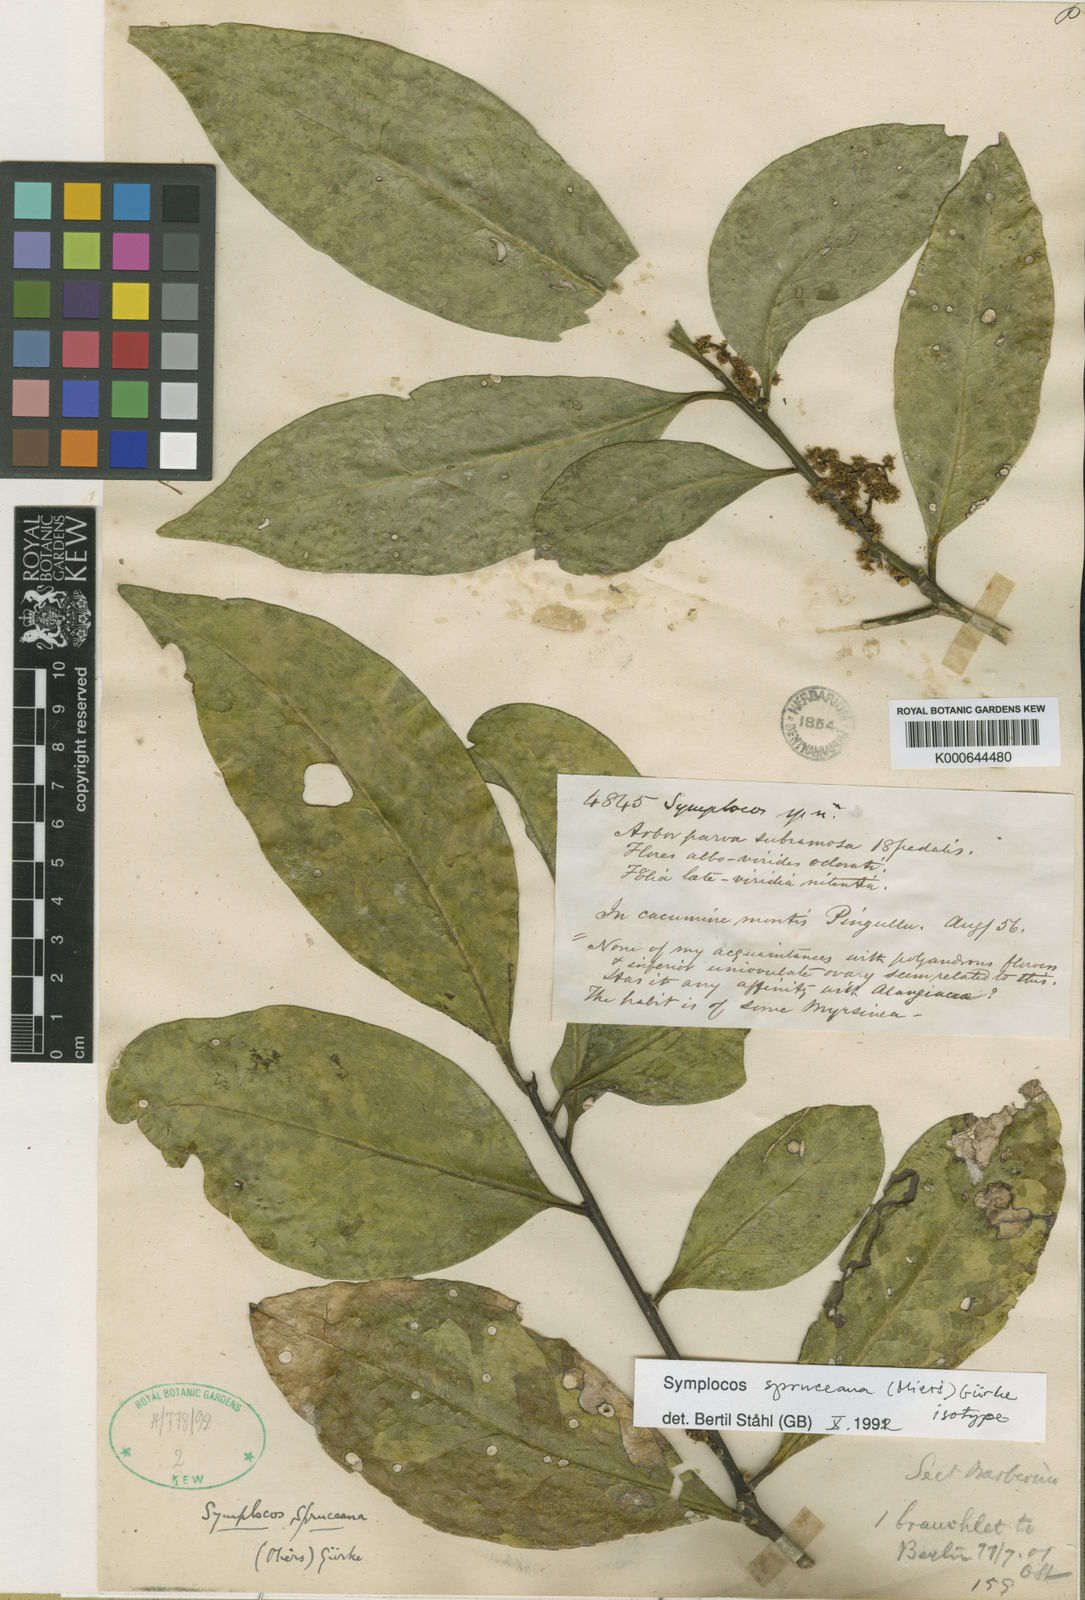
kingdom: Plantae
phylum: Tracheophyta
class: Magnoliopsida
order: Ericales
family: Symplocaceae
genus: Symplocos
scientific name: Symplocos
